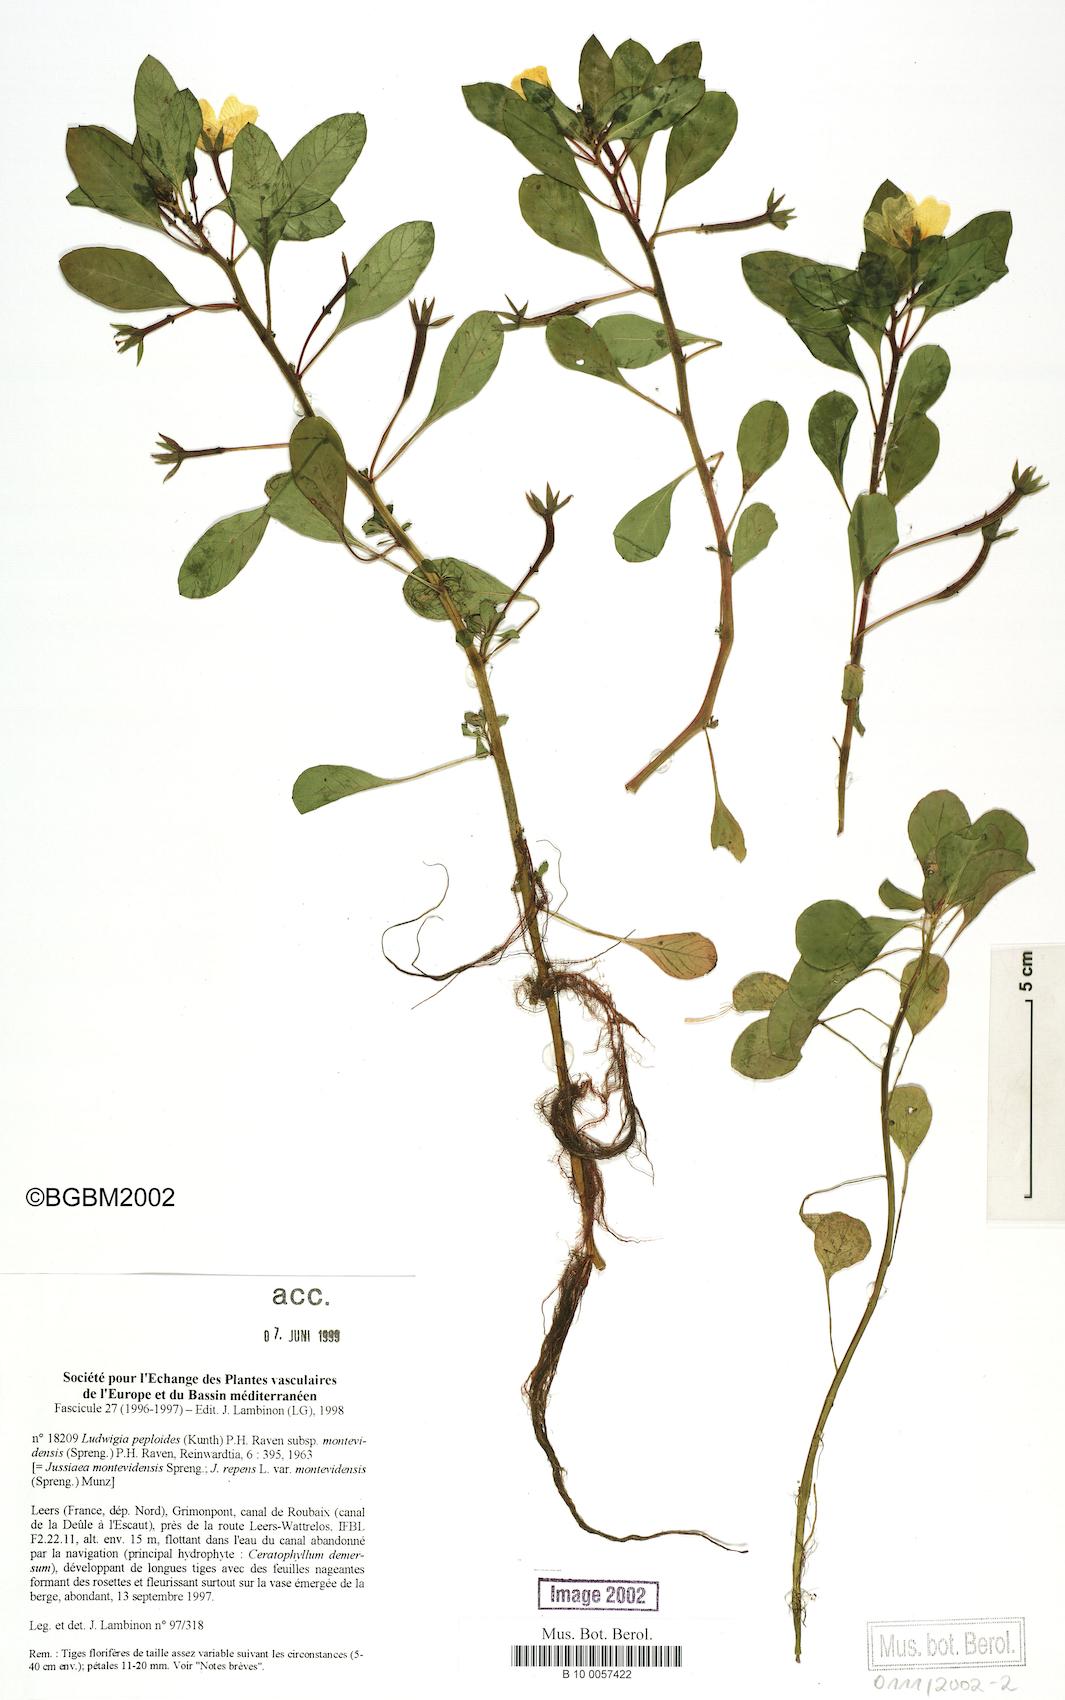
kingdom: Plantae
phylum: Tracheophyta
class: Magnoliopsida
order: Myrtales
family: Onagraceae
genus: Ludwigia
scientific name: Ludwigia peploides
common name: Floating primrose-willow
